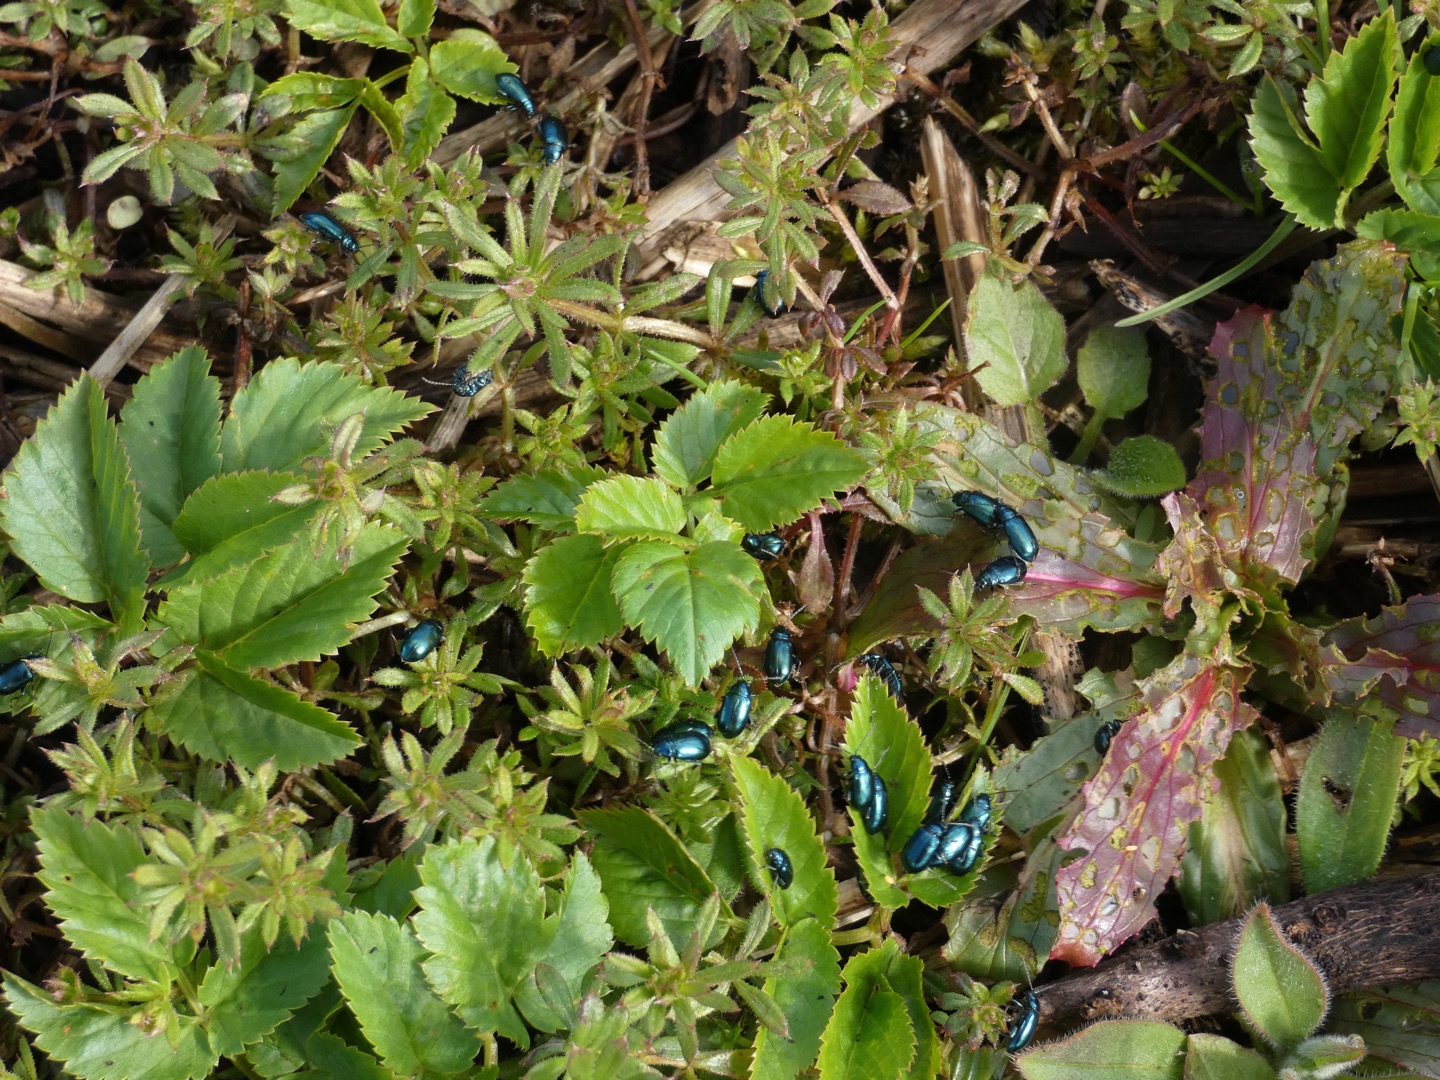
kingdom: Animalia
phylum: Arthropoda
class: Insecta
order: Coleoptera
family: Chrysomelidae
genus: Altica
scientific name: Altica
